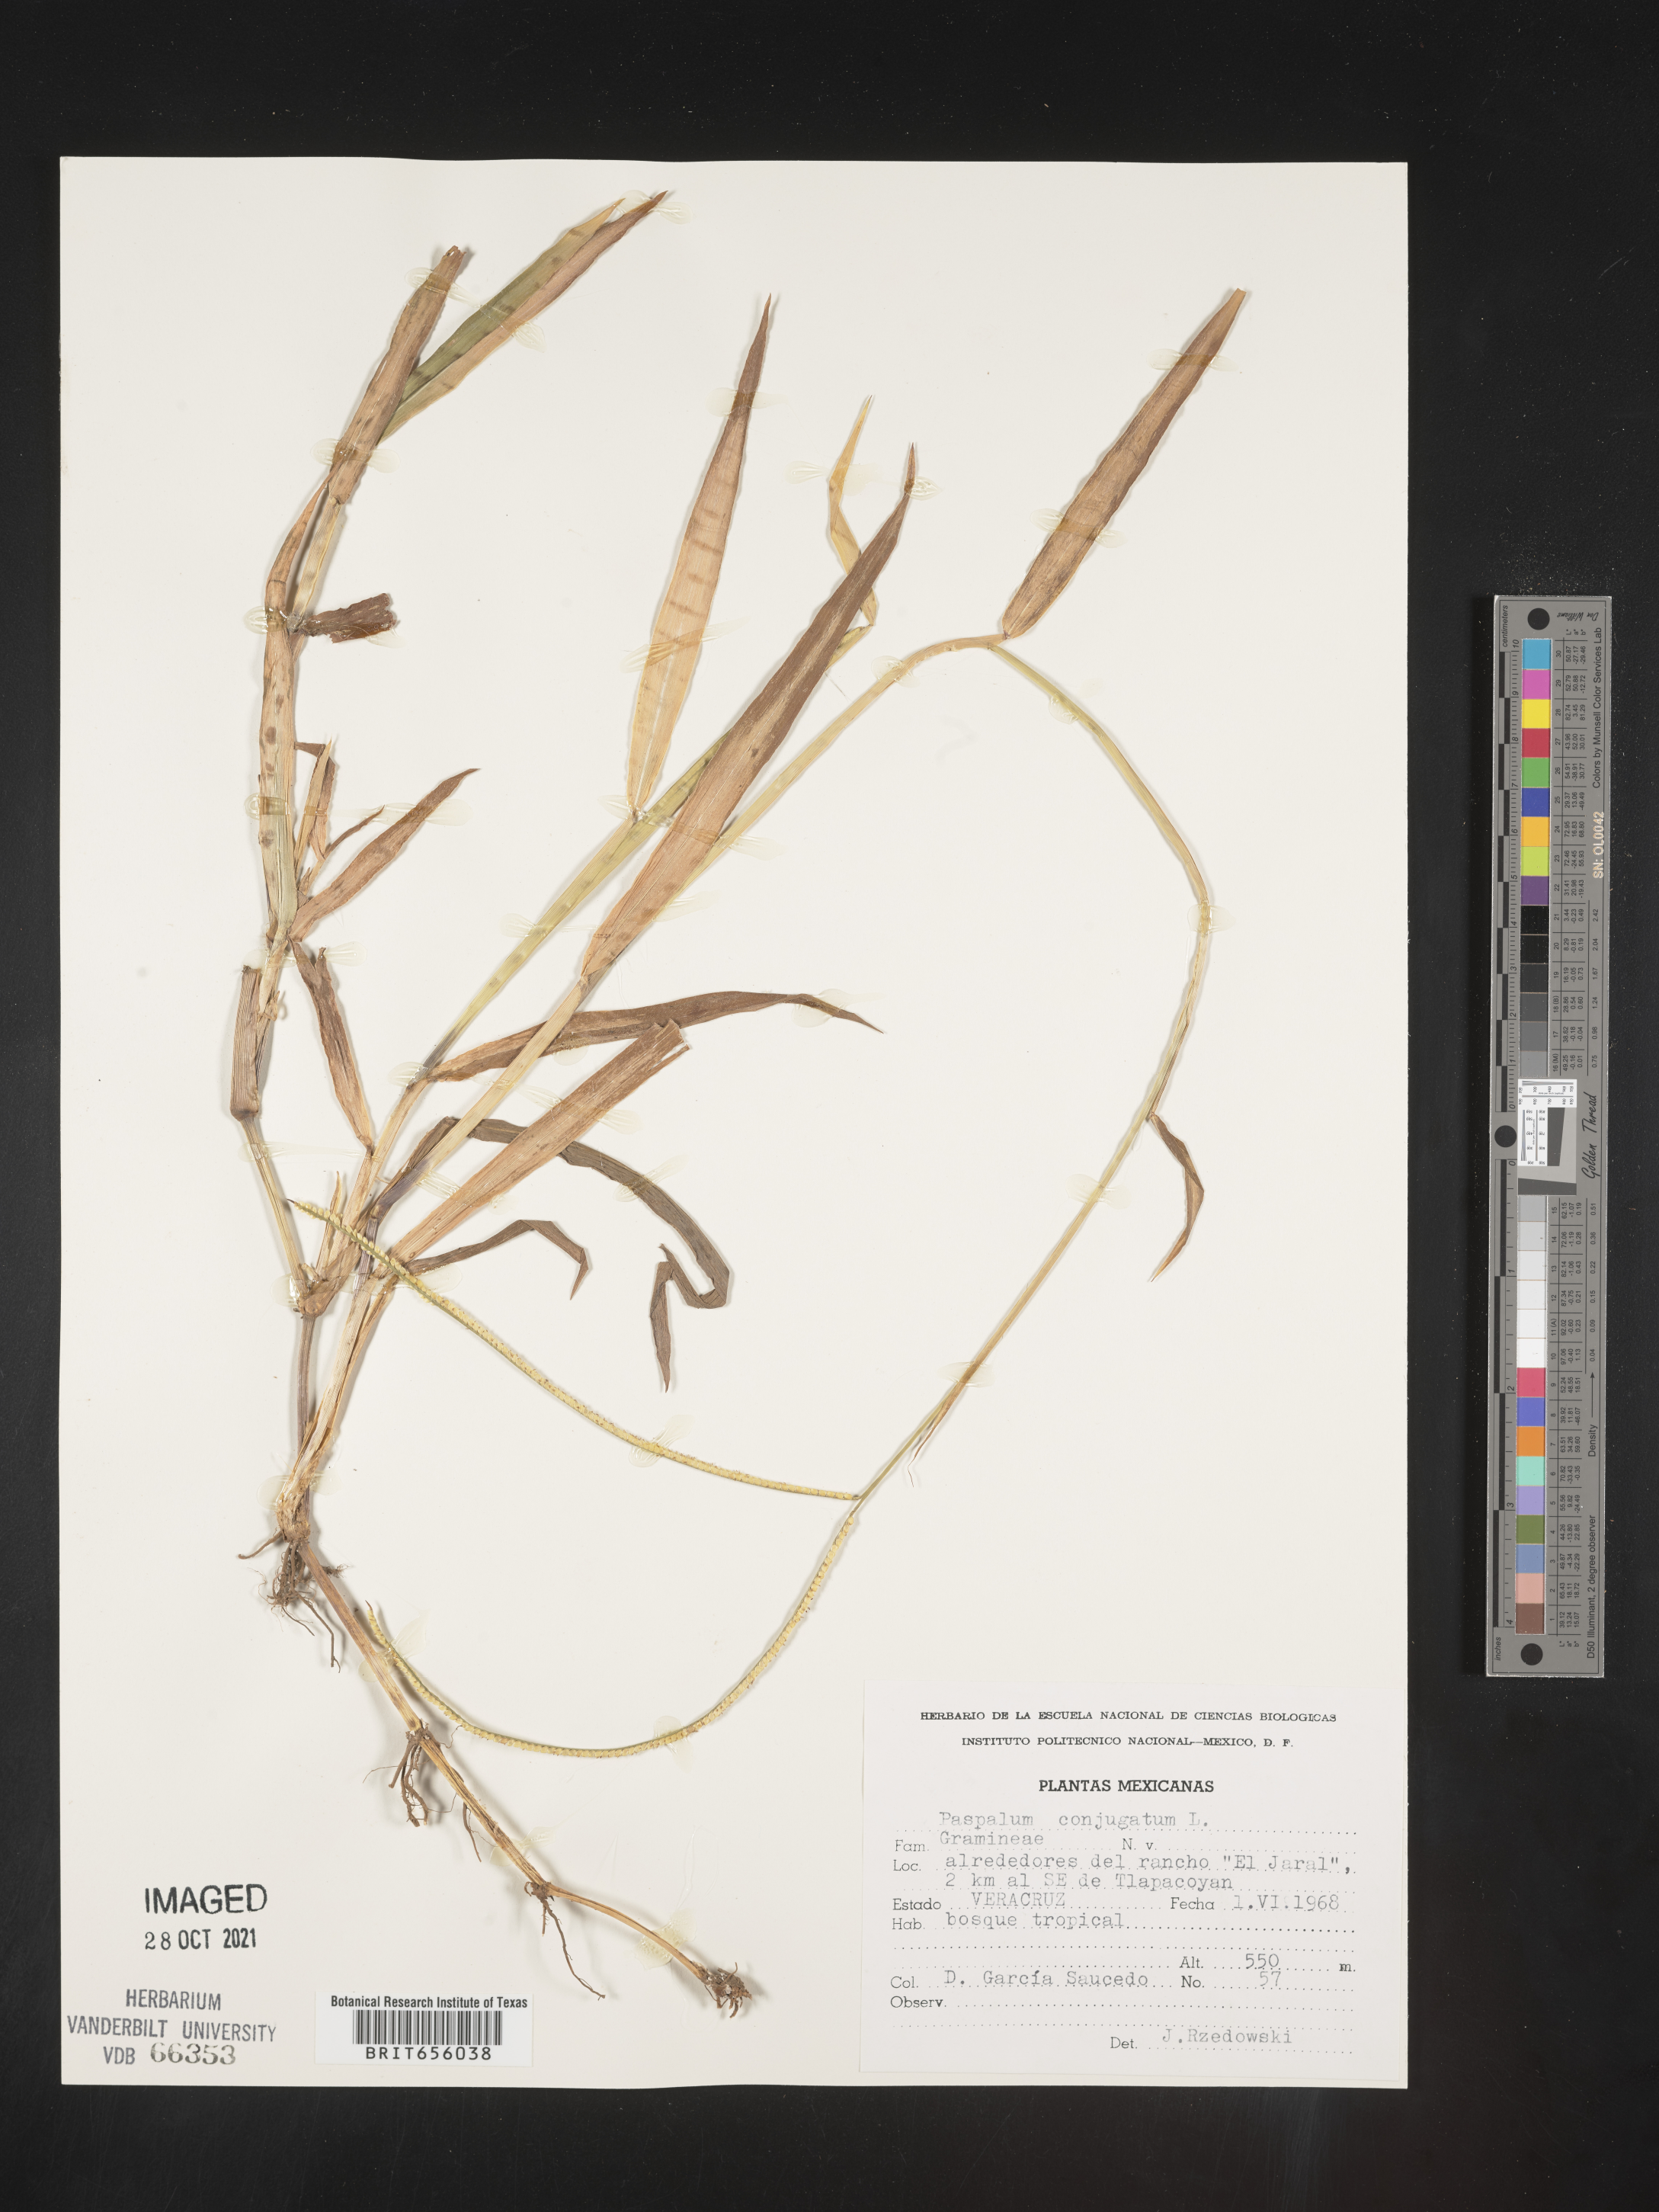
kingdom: Plantae
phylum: Tracheophyta
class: Liliopsida
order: Poales
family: Poaceae
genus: Paspalum
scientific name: Paspalum
